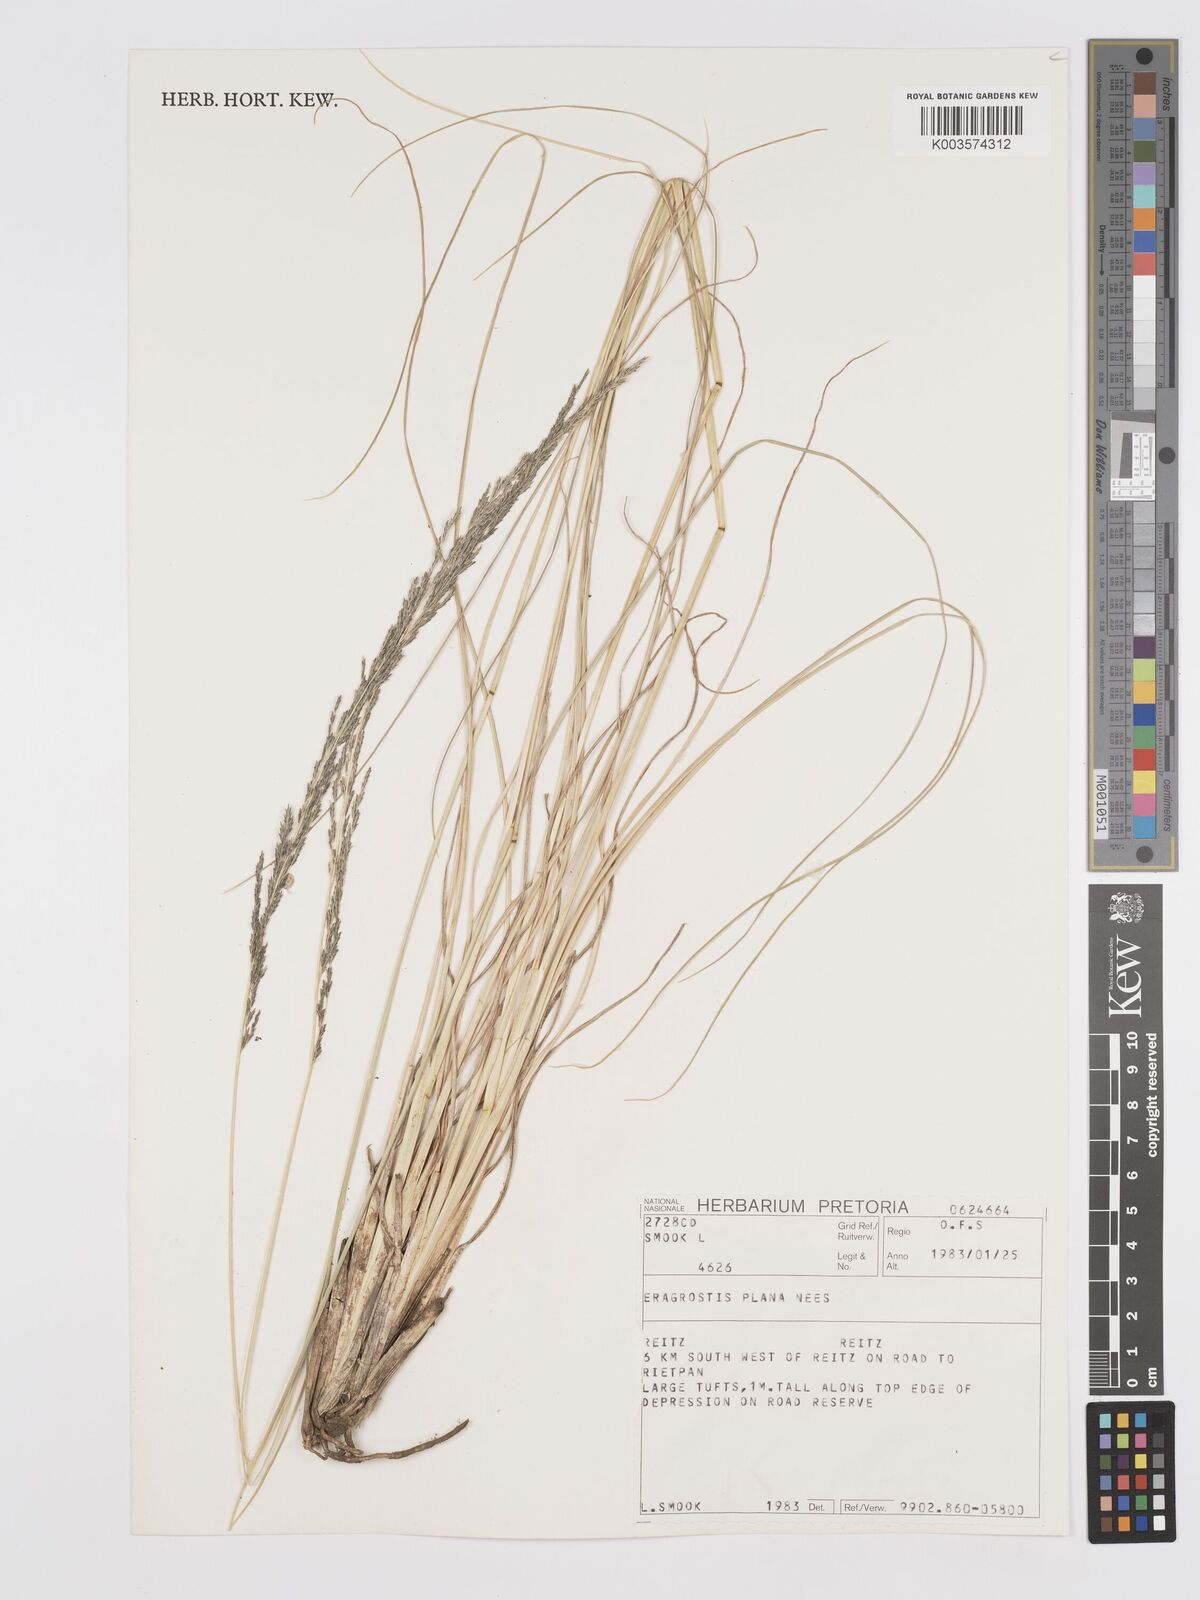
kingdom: Plantae
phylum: Tracheophyta
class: Liliopsida
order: Poales
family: Poaceae
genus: Eragrostis
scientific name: Eragrostis plana
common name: South african lovegrass
